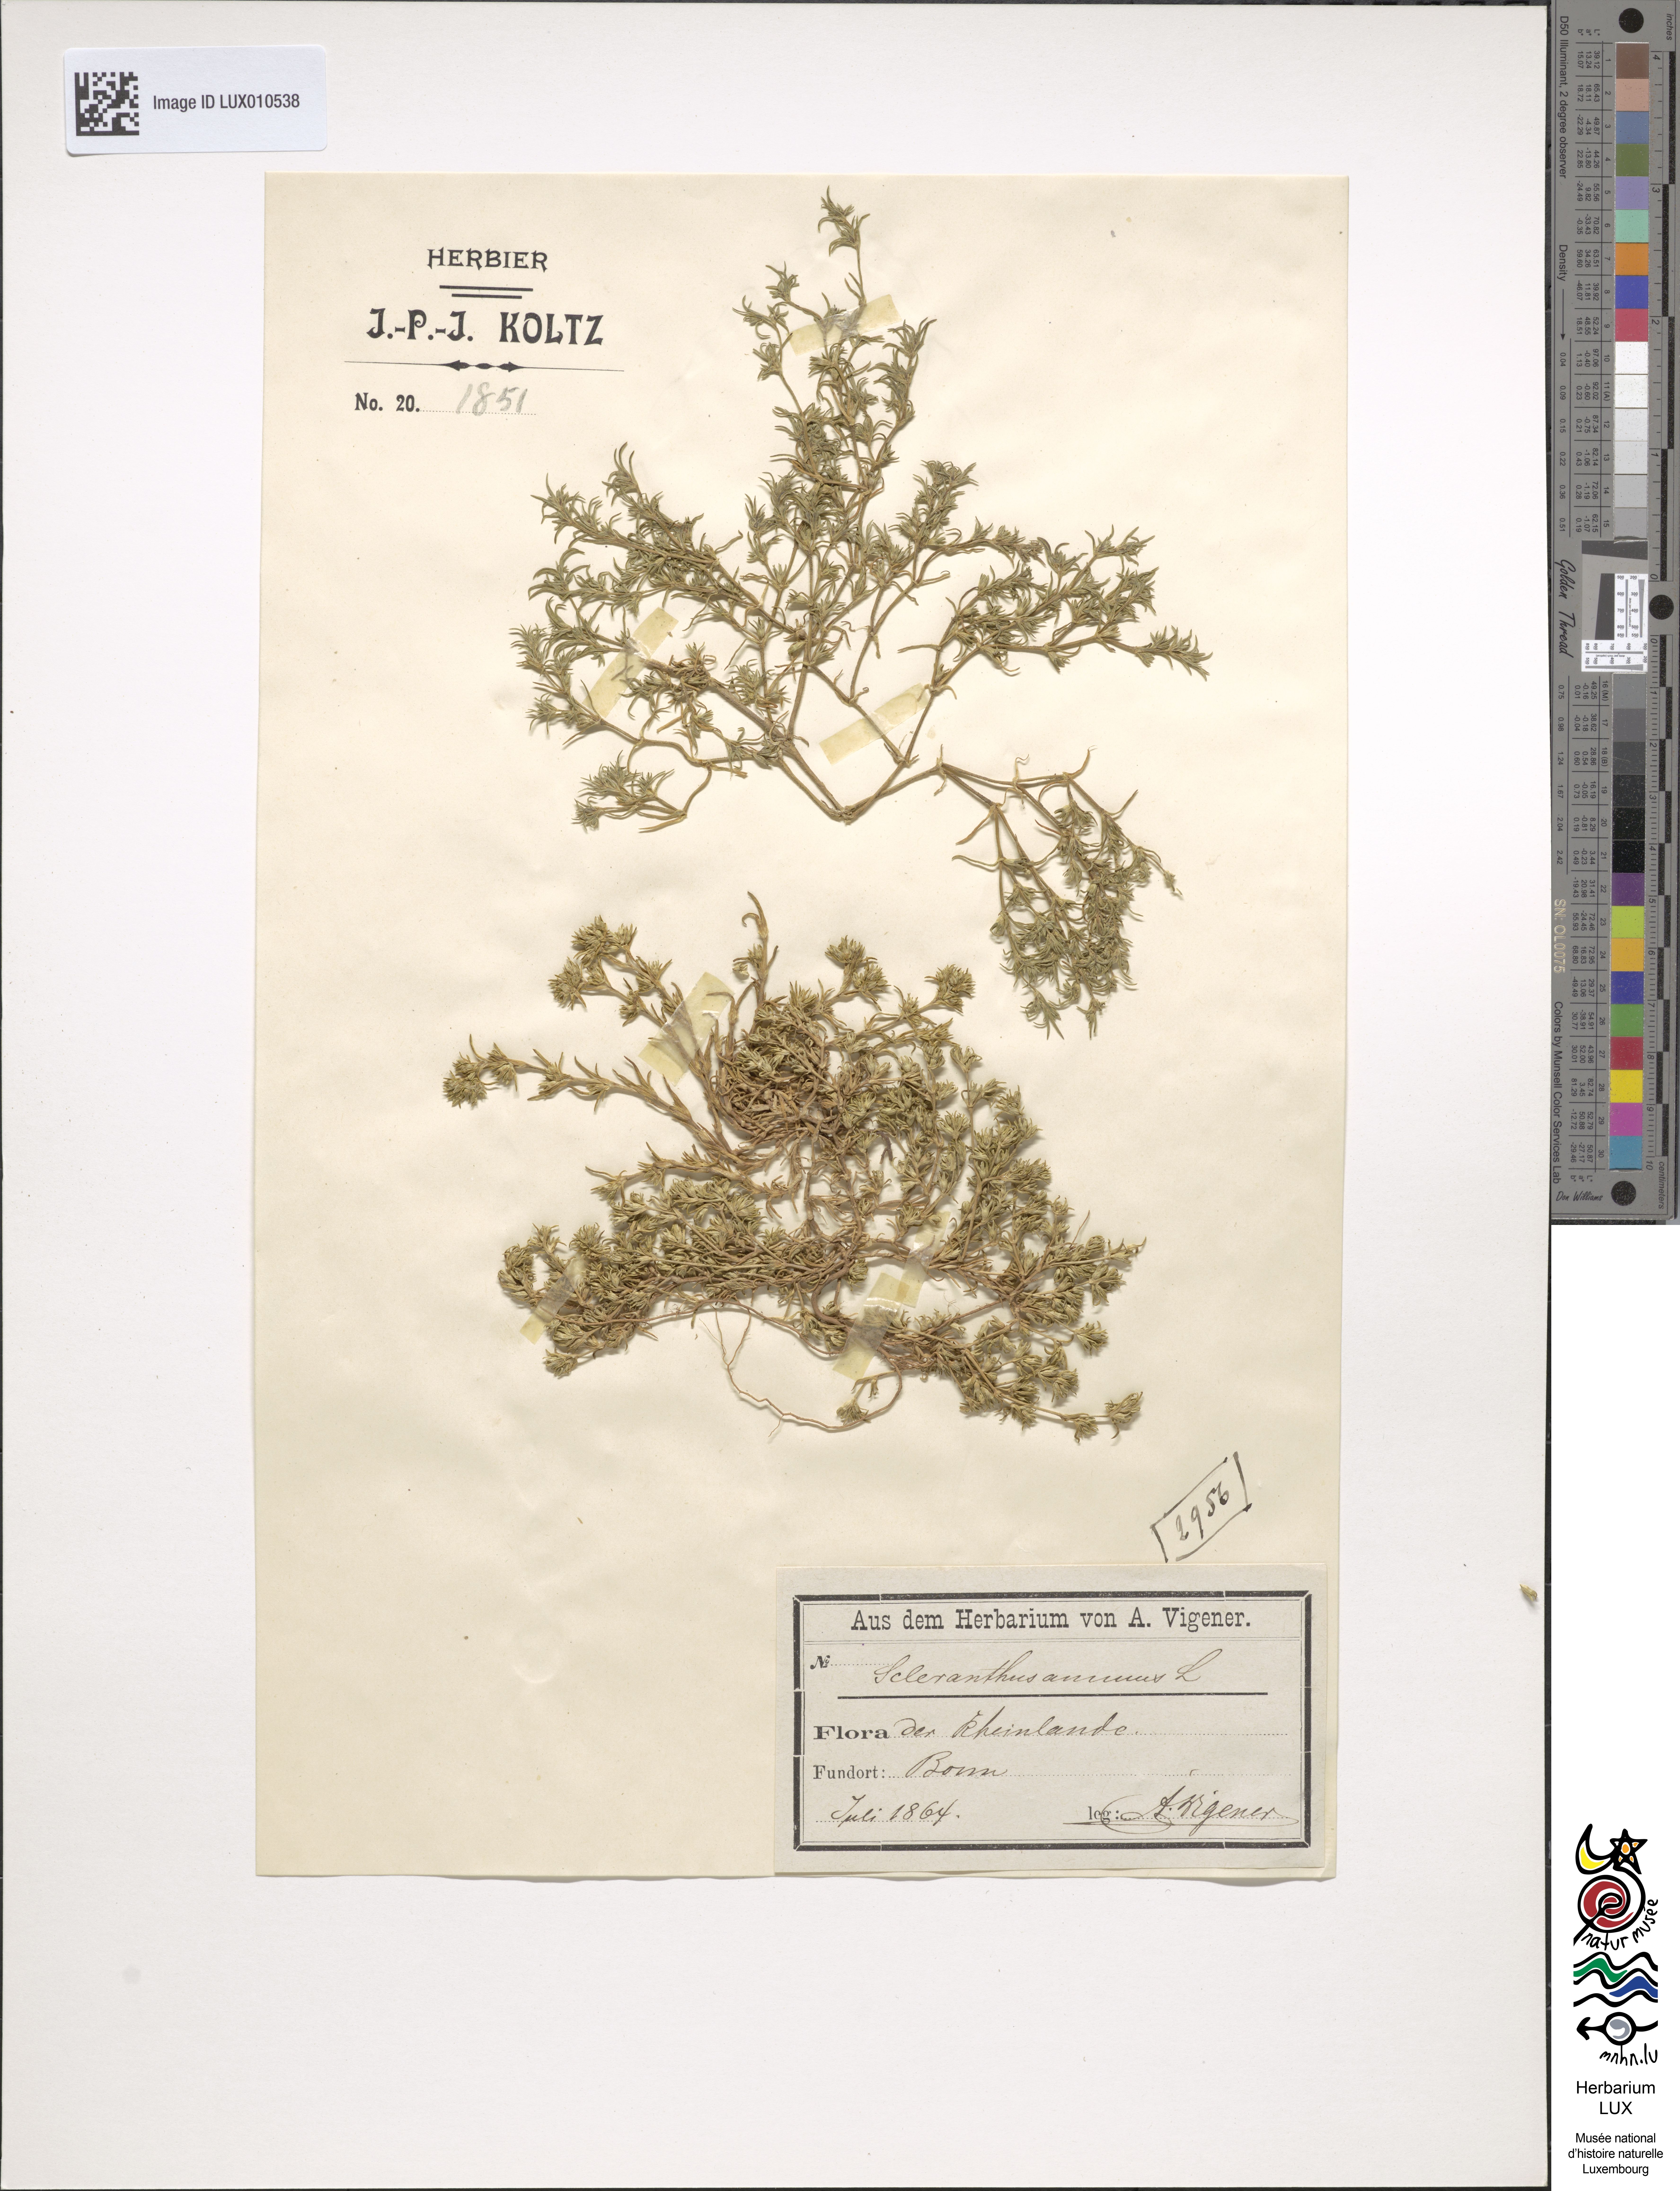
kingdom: Plantae
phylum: Tracheophyta
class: Magnoliopsida
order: Caryophyllales
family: Caryophyllaceae
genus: Scleranthus
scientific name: Scleranthus annuus
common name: Annual knawel
